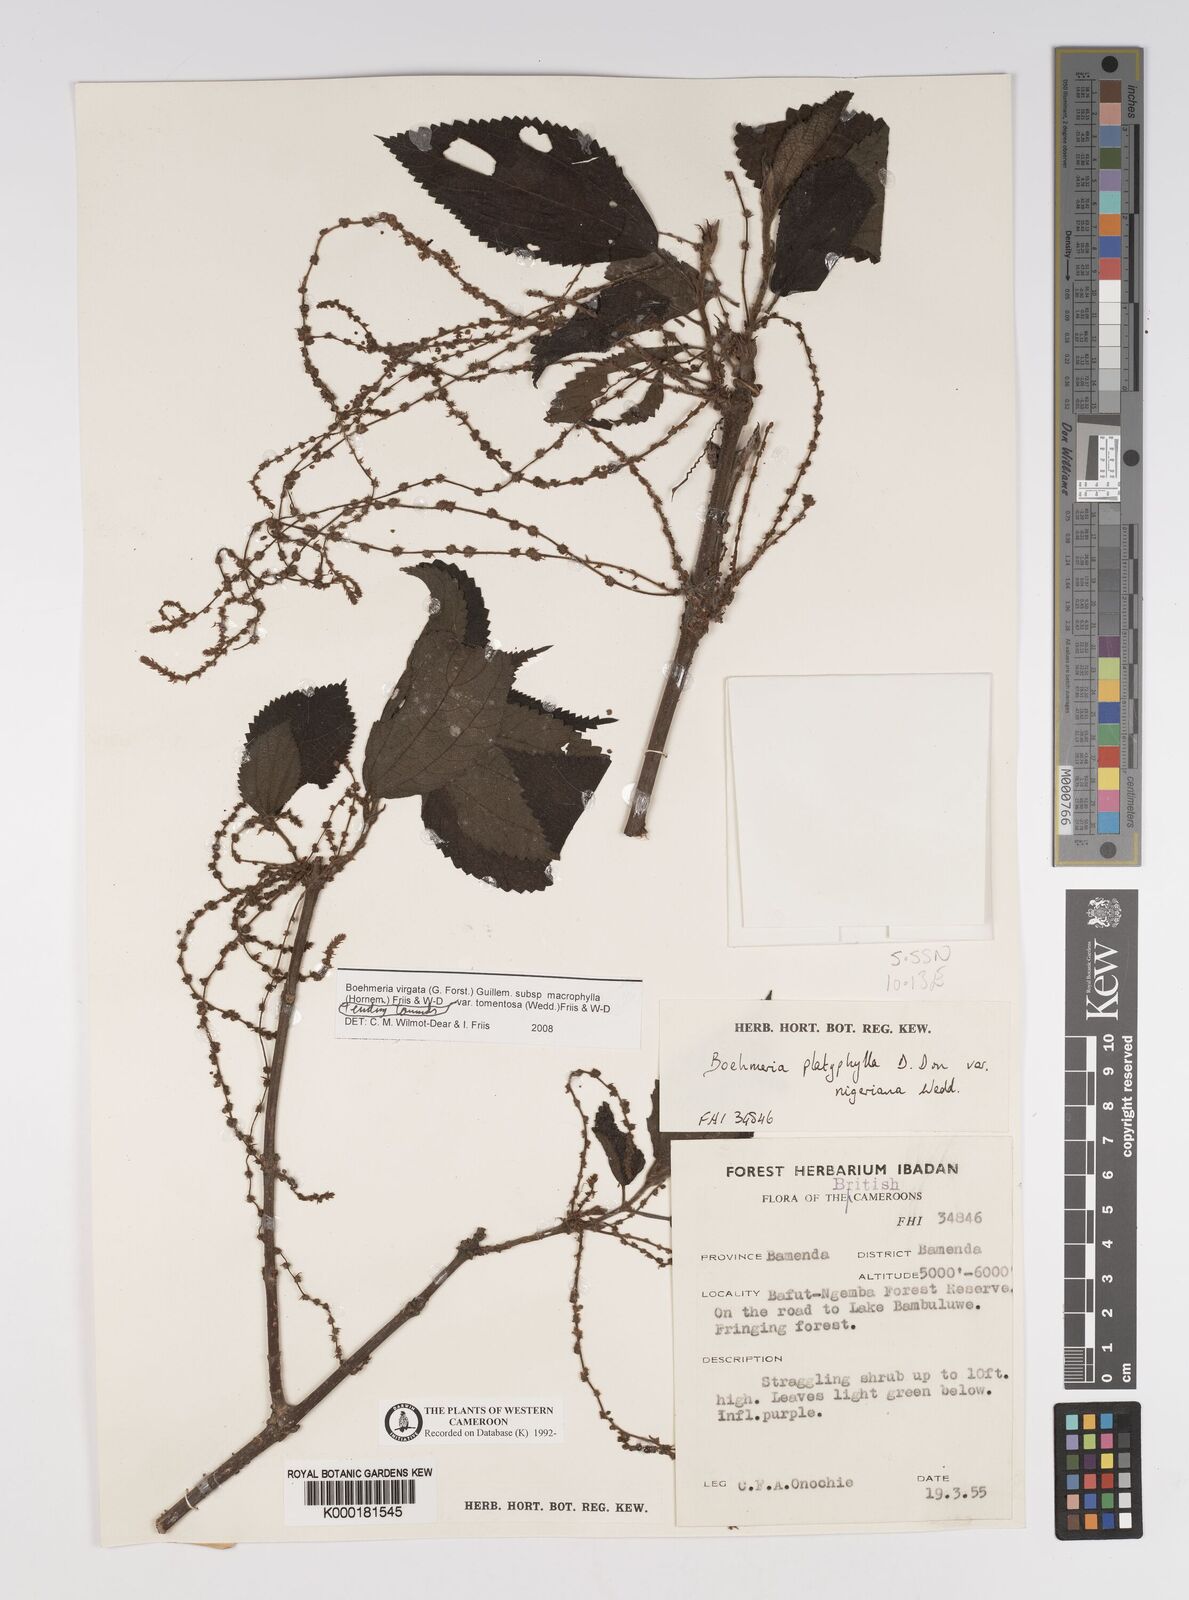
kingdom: Plantae
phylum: Tracheophyta
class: Magnoliopsida
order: Rosales
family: Urticaceae
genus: Boehmeria
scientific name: Boehmeria virgata
